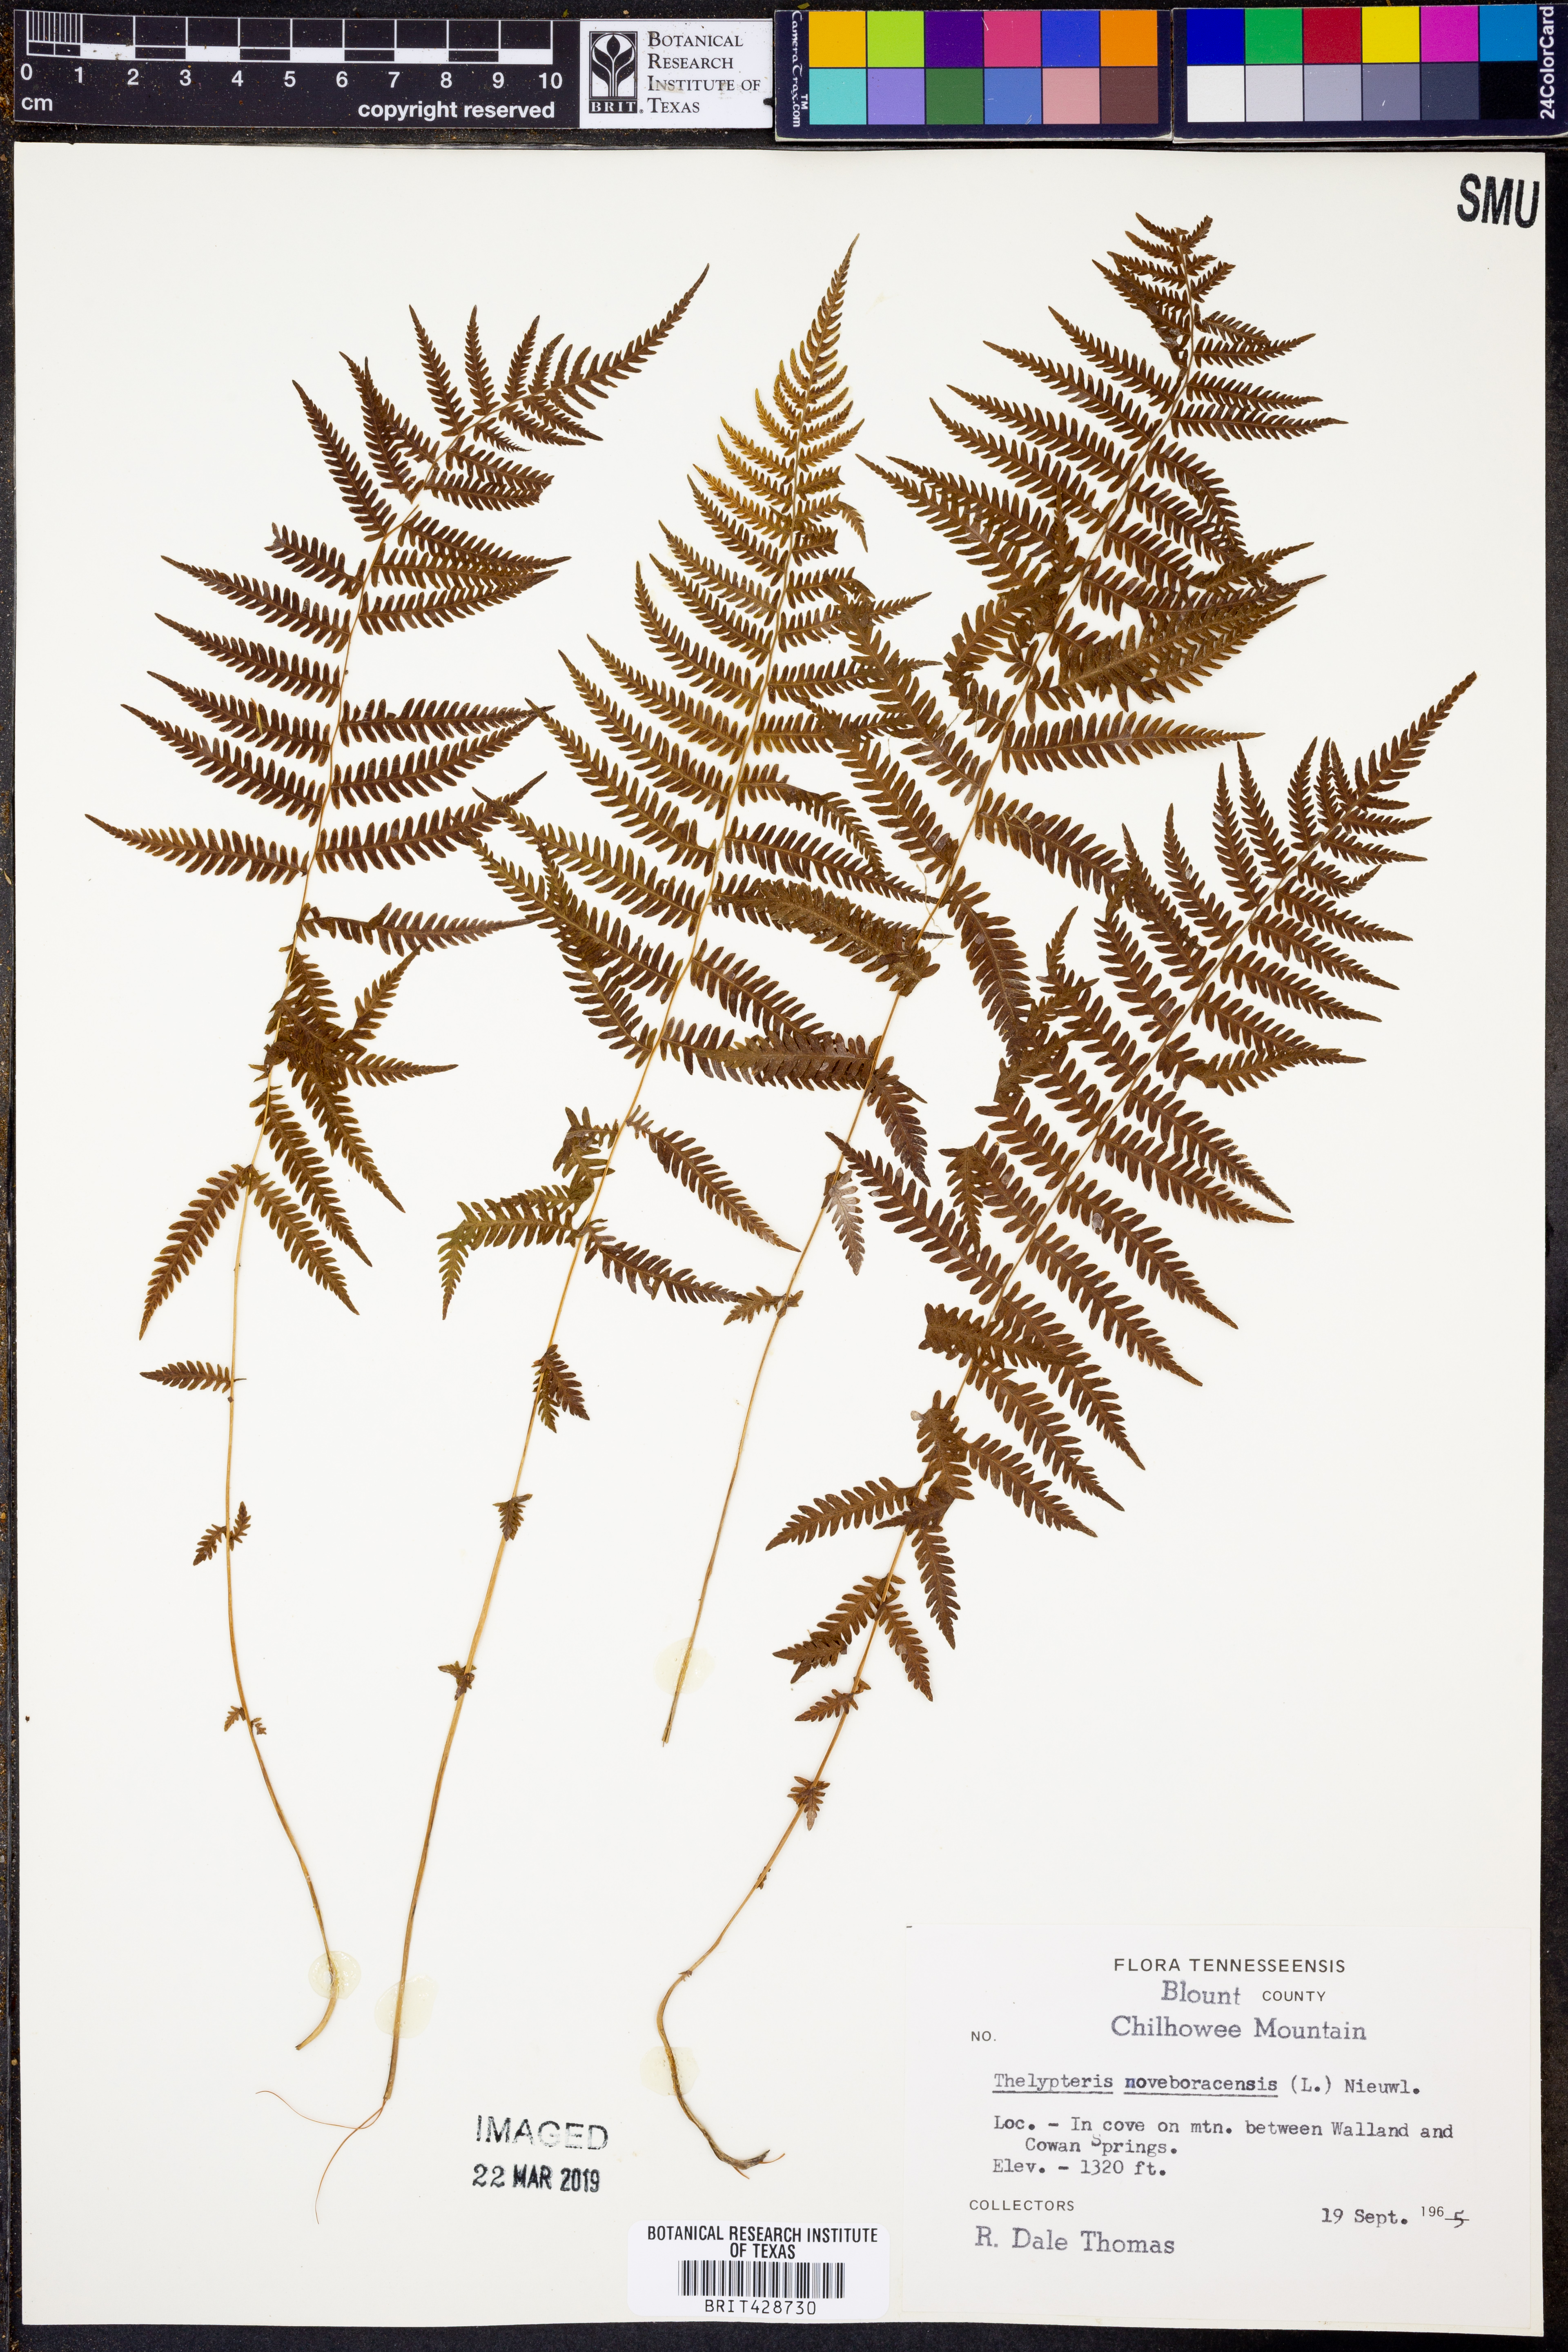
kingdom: Plantae
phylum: Tracheophyta
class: Polypodiopsida
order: Polypodiales
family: Thelypteridaceae
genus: Amauropelta
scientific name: Amauropelta noveboracensis
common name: New york fern
